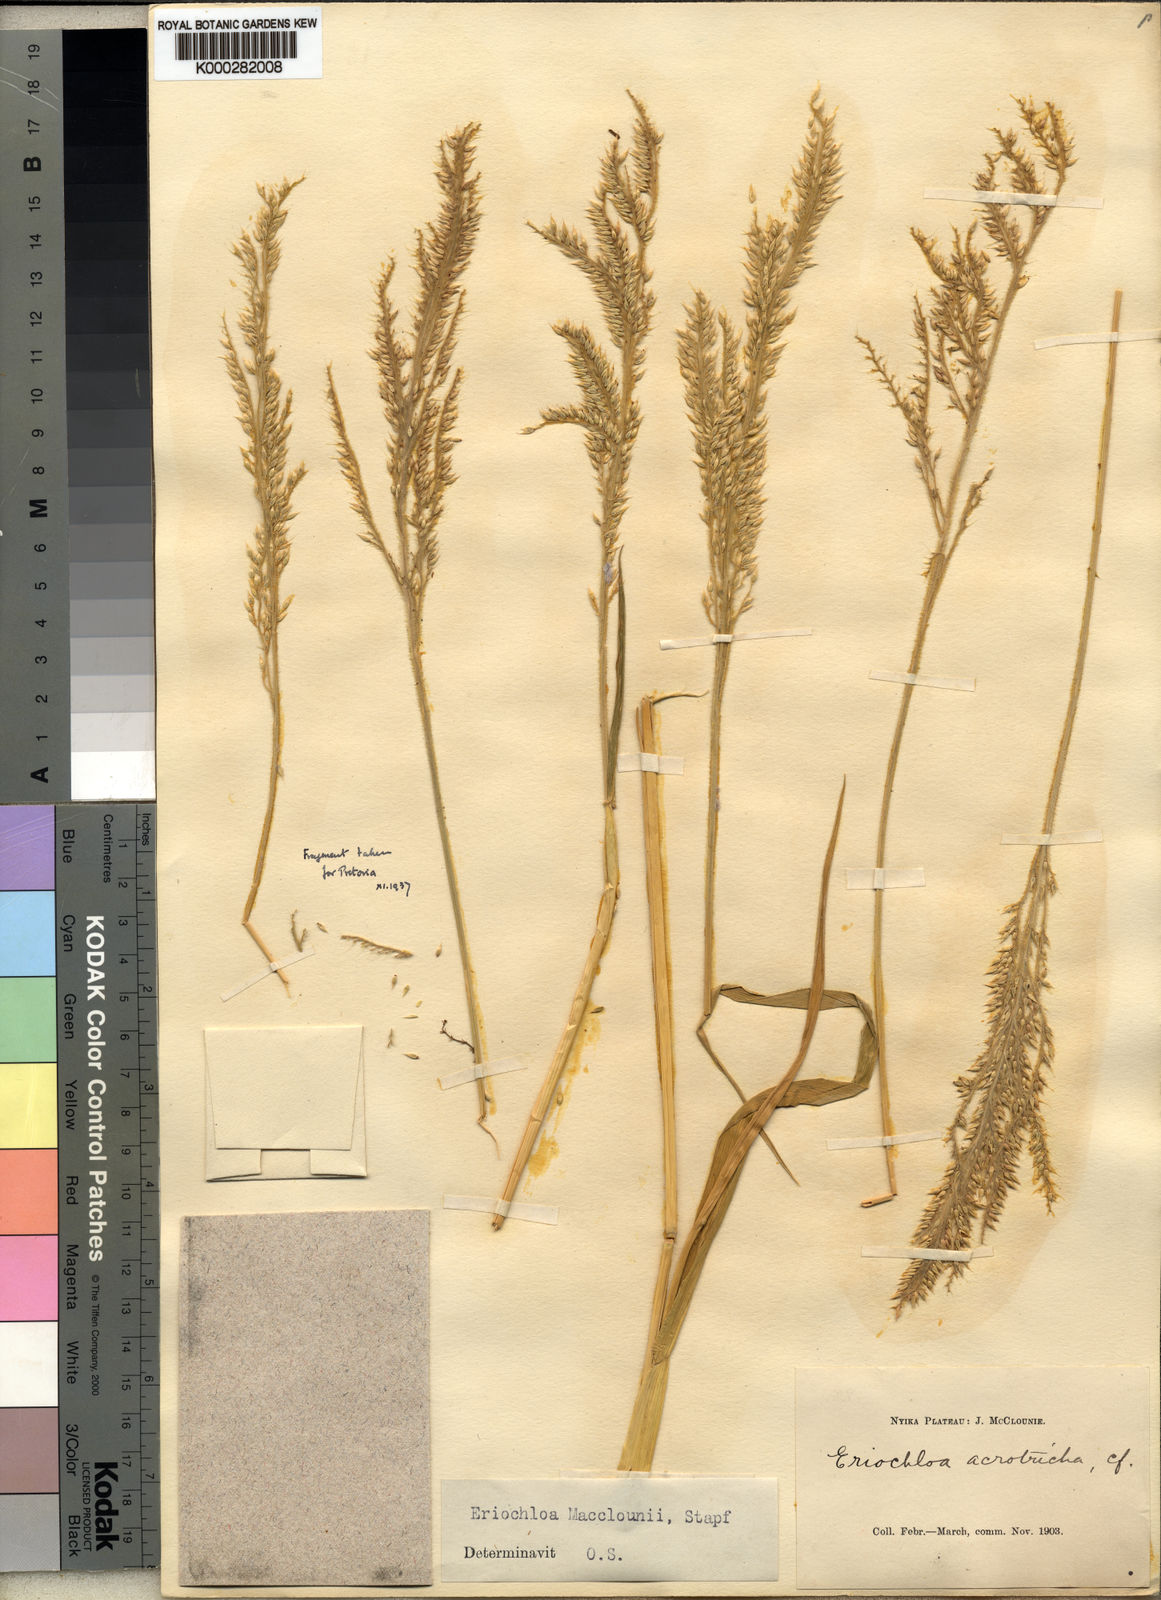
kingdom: Plantae
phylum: Tracheophyta
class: Liliopsida
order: Poales
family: Poaceae
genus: Eriochloa
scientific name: Eriochloa macclounii
